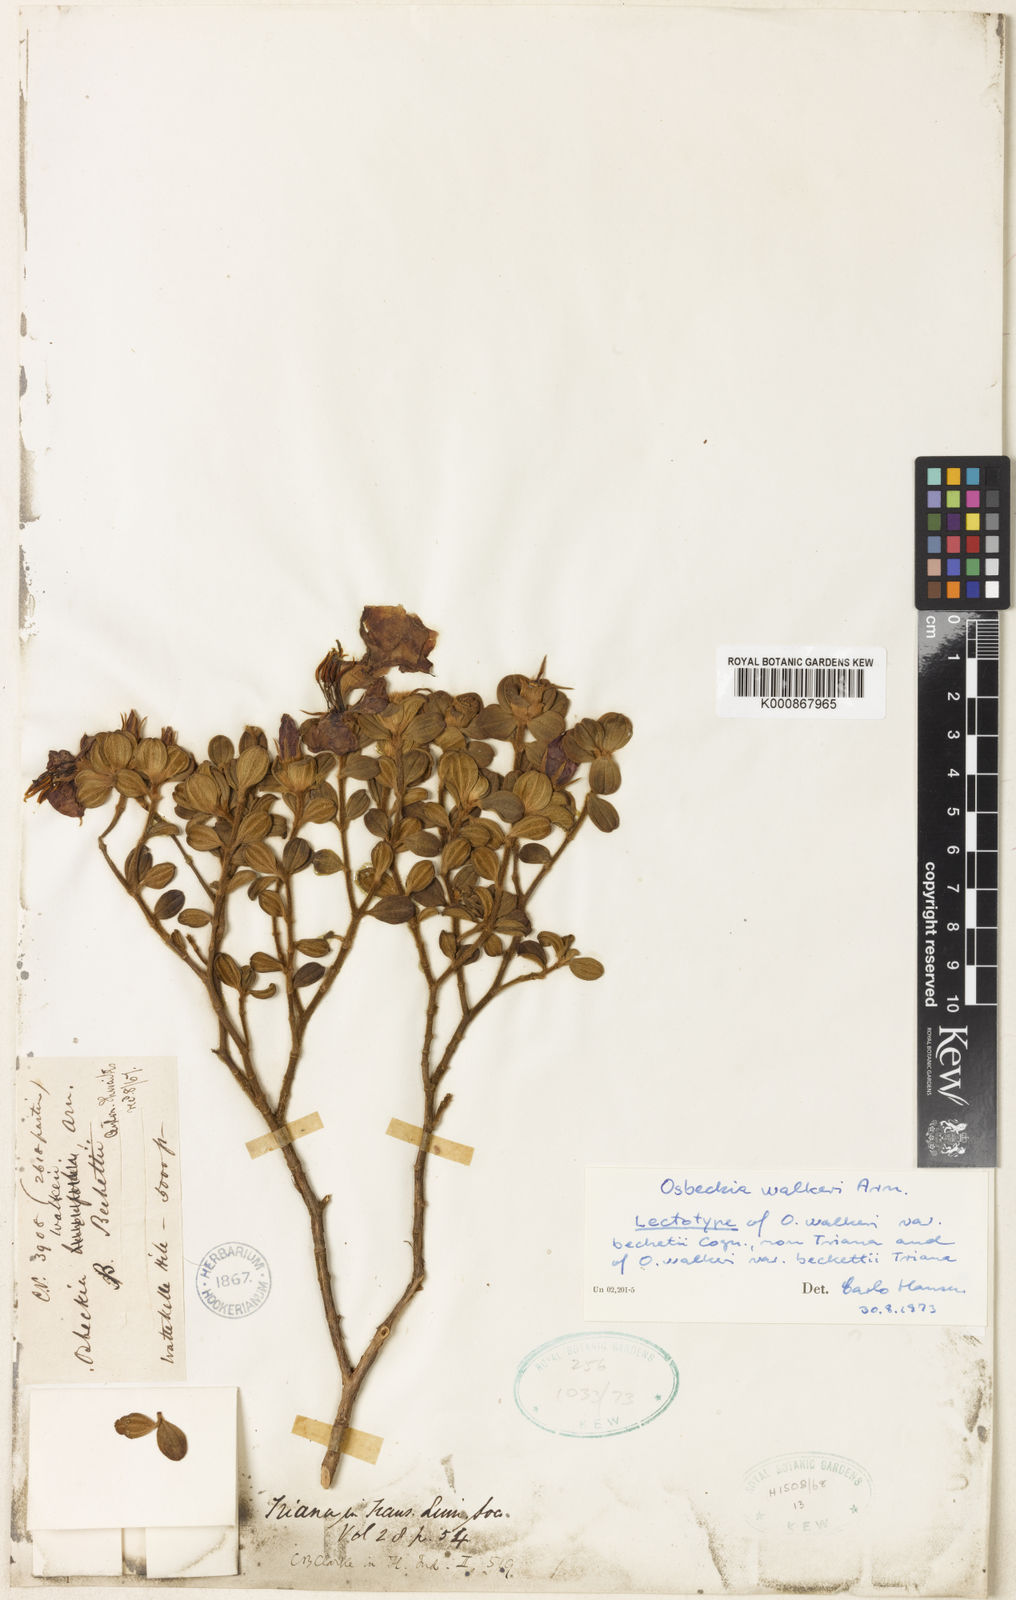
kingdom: Plantae
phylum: Tracheophyta
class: Magnoliopsida
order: Myrtales
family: Melastomataceae
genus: Osbeckia
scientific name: Osbeckia walkeri
